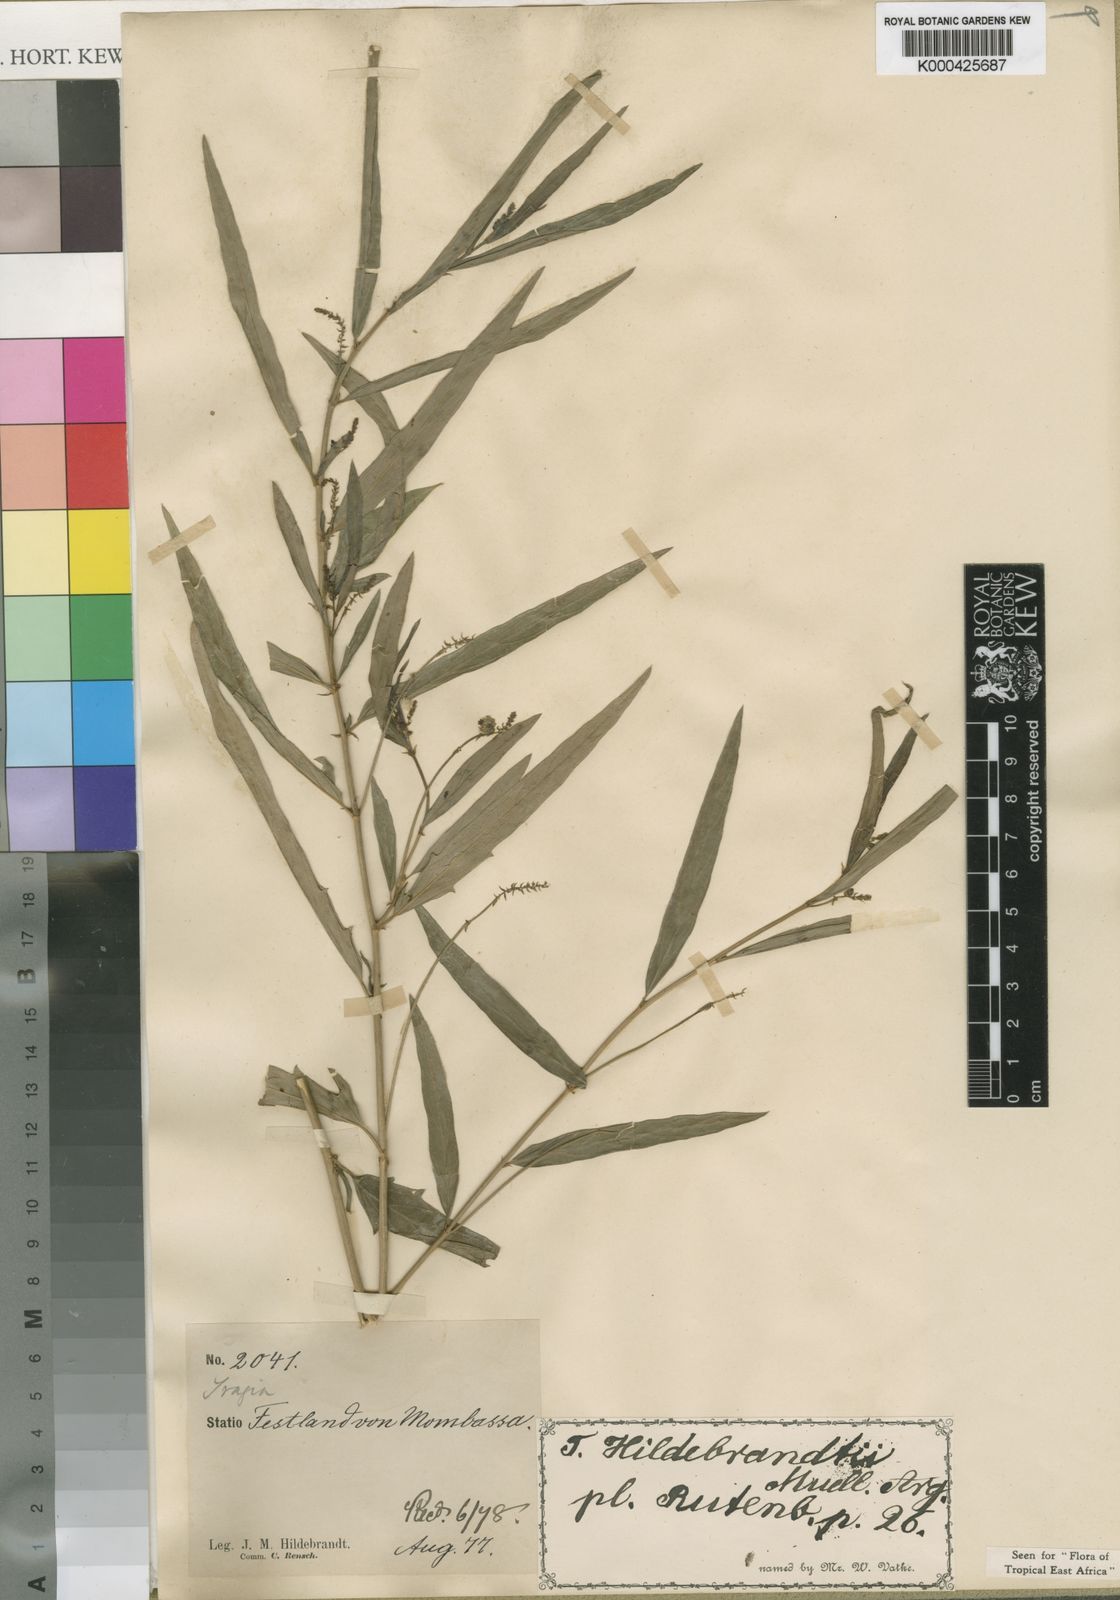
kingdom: Plantae
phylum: Tracheophyta
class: Magnoliopsida
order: Malpighiales
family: Euphorbiaceae
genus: Tragia
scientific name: Tragia
